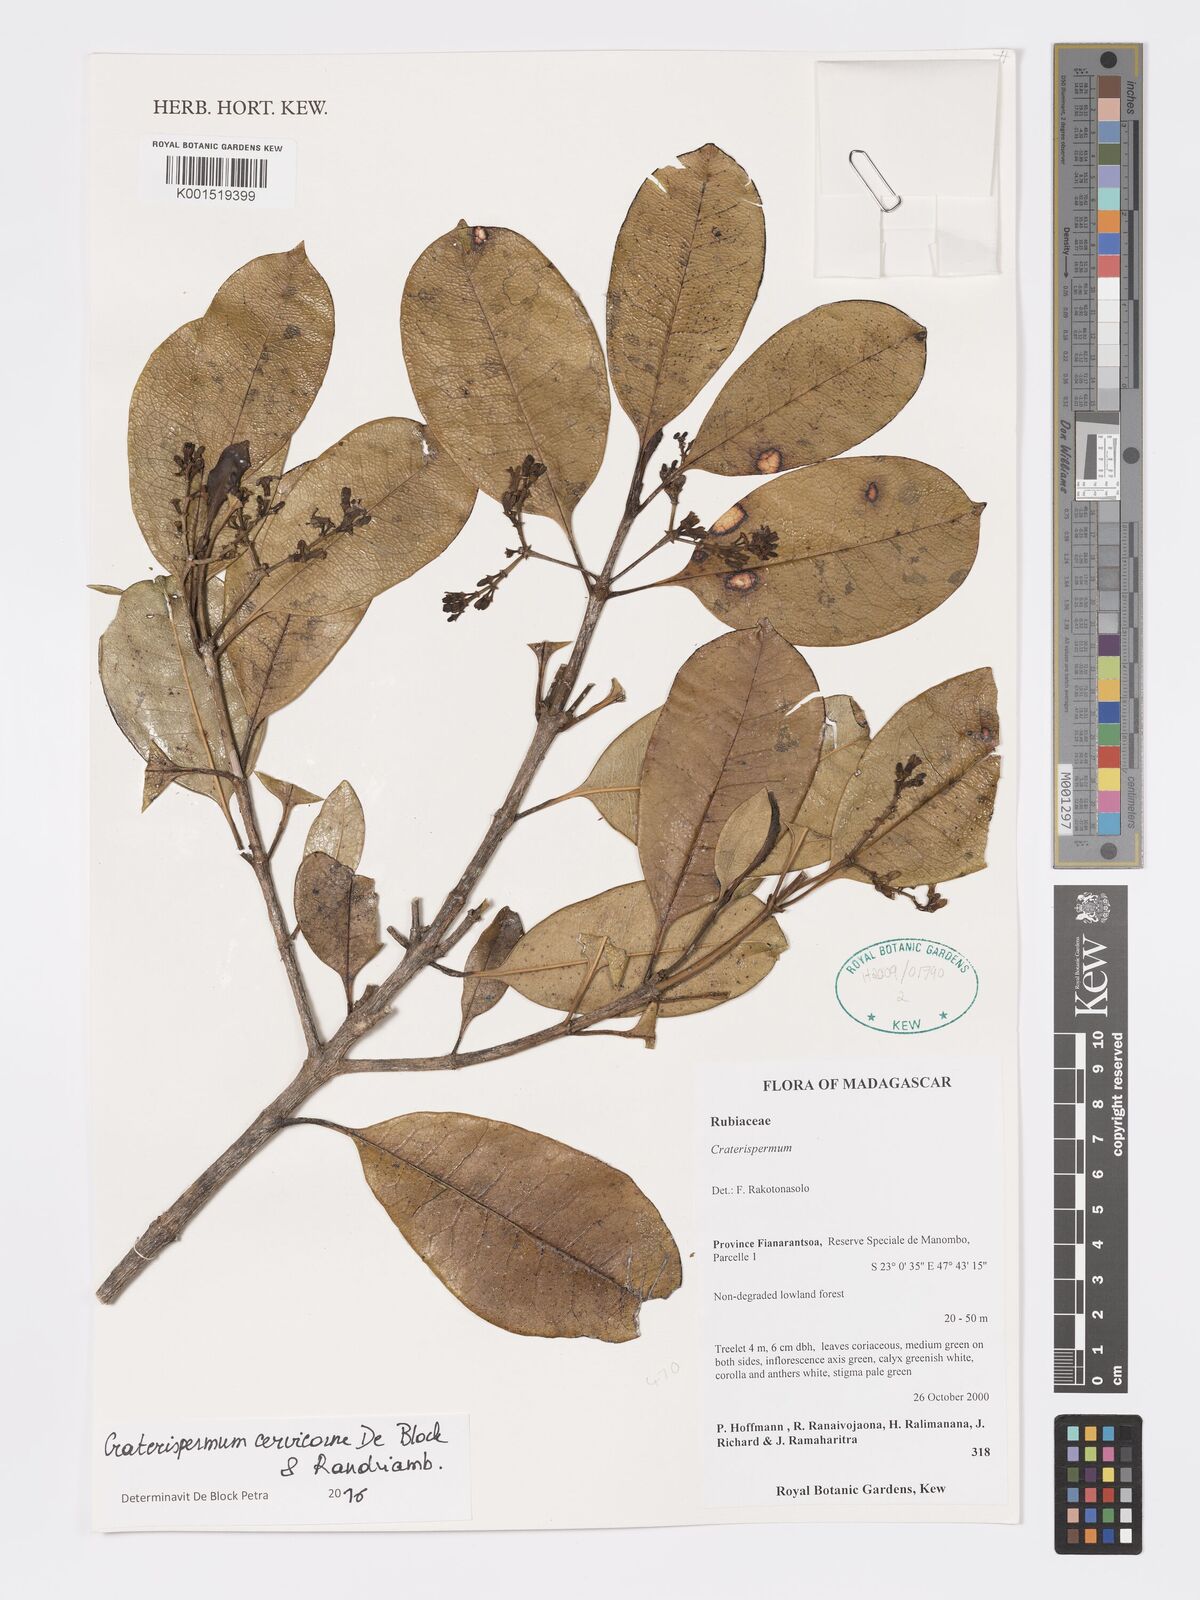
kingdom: Plantae
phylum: Tracheophyta
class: Magnoliopsida
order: Gentianales
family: Rubiaceae
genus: Craterispermum
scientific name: Craterispermum cervicorne
